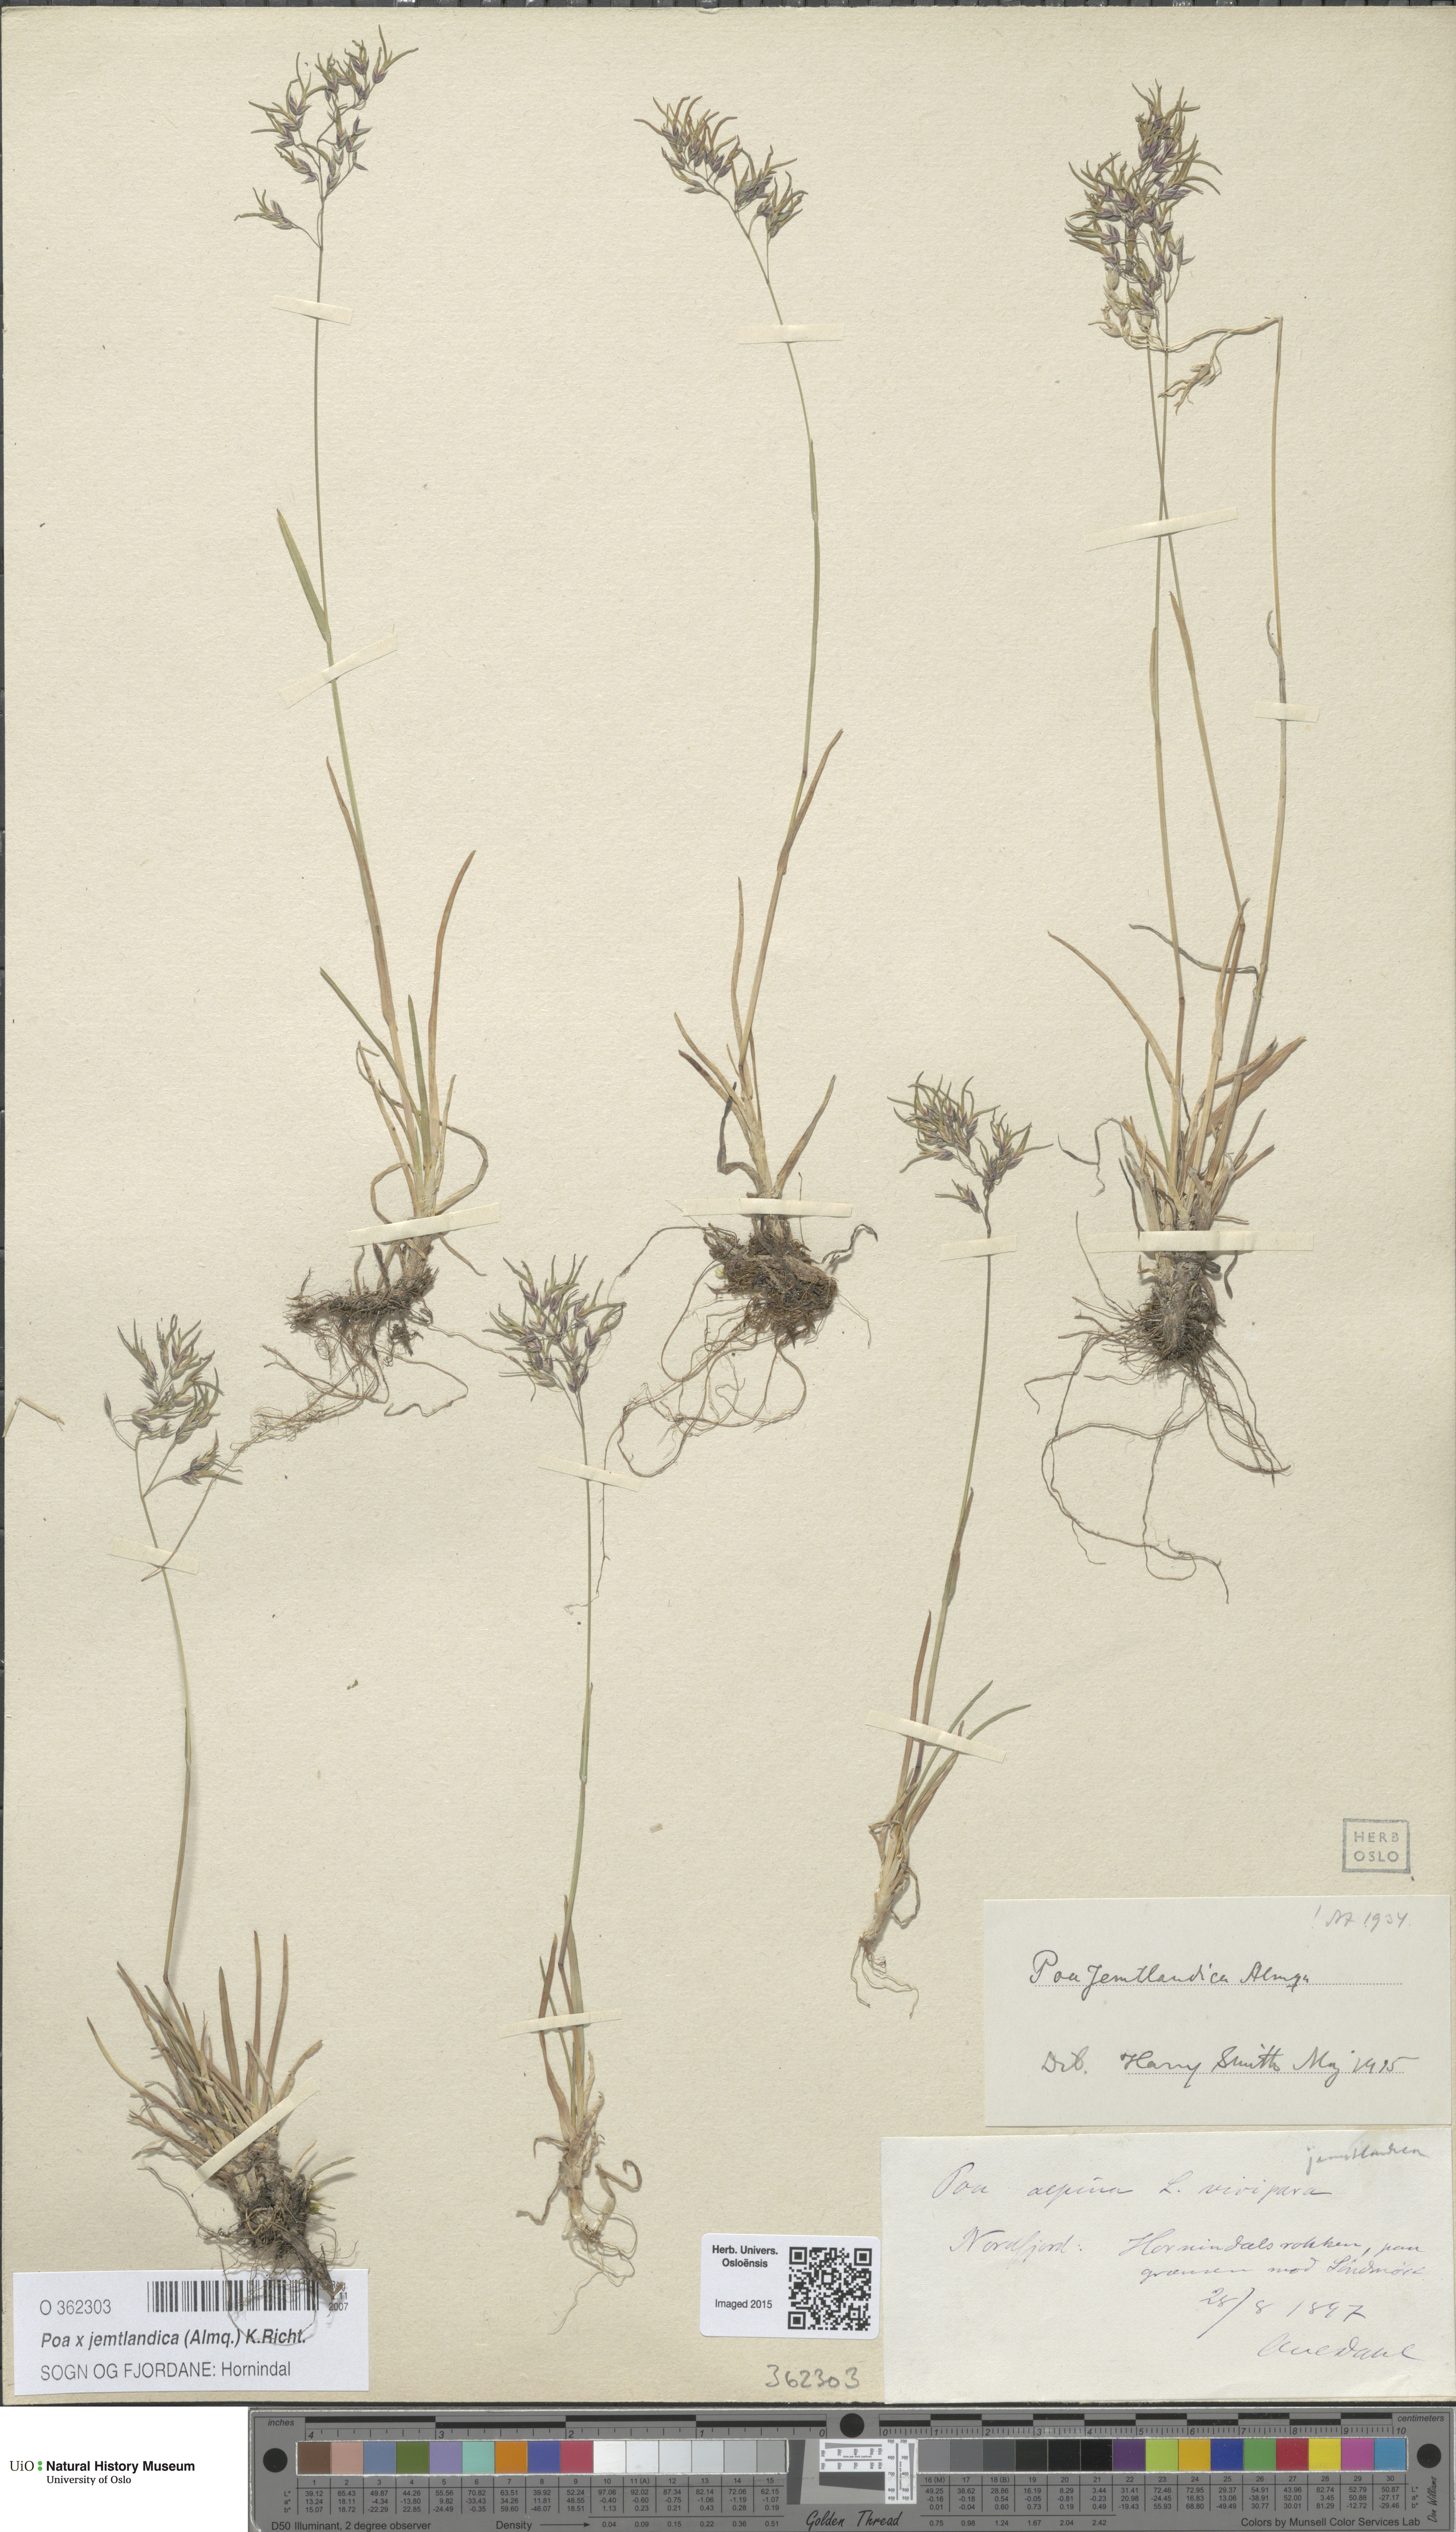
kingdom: Plantae
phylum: Tracheophyta
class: Liliopsida
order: Poales
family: Poaceae
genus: Poa
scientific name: Poa jemtlandica
